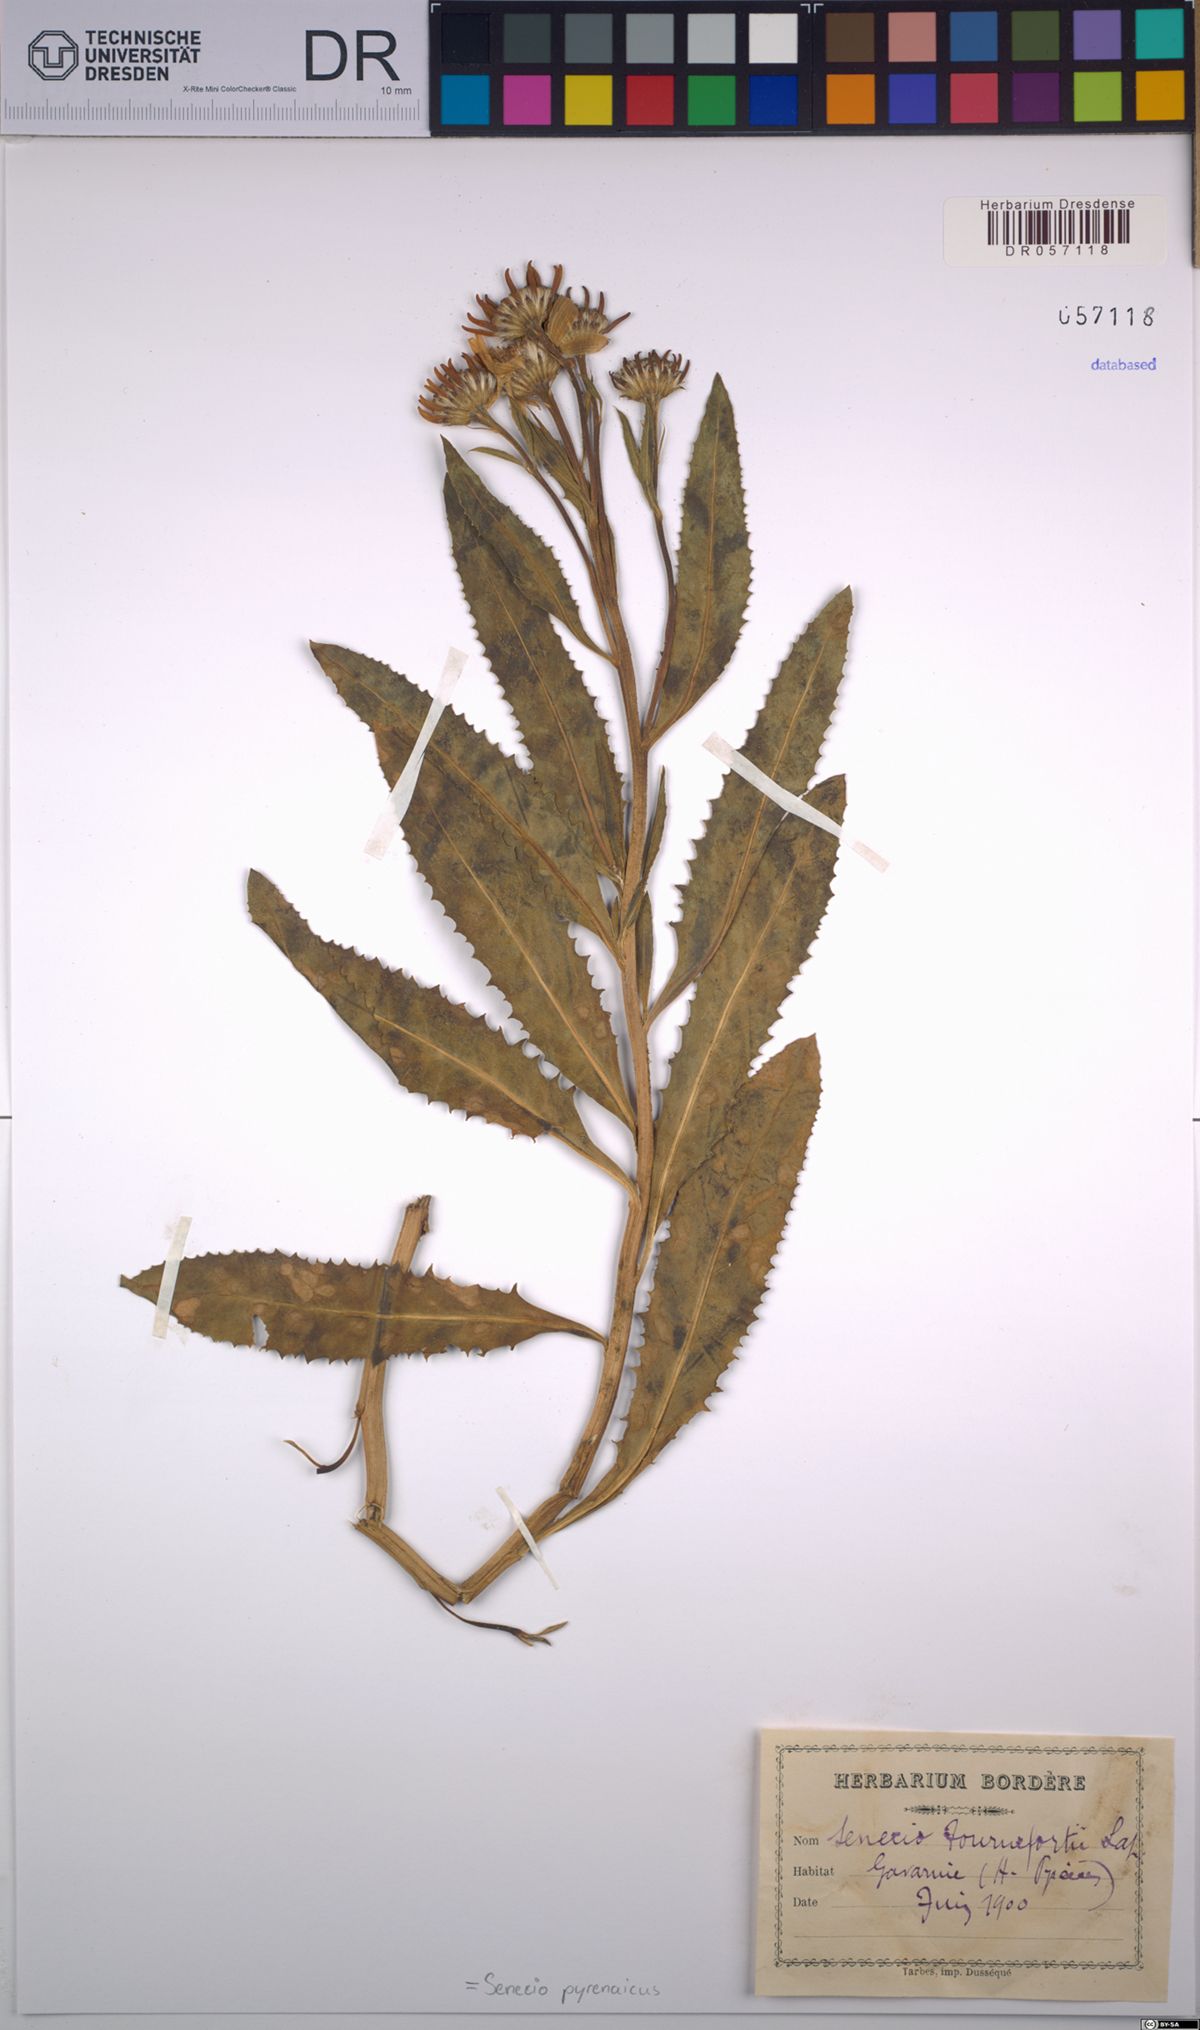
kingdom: Plantae
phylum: Tracheophyta
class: Magnoliopsida
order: Asterales
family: Asteraceae
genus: Senecio
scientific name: Senecio pyrenaicus
